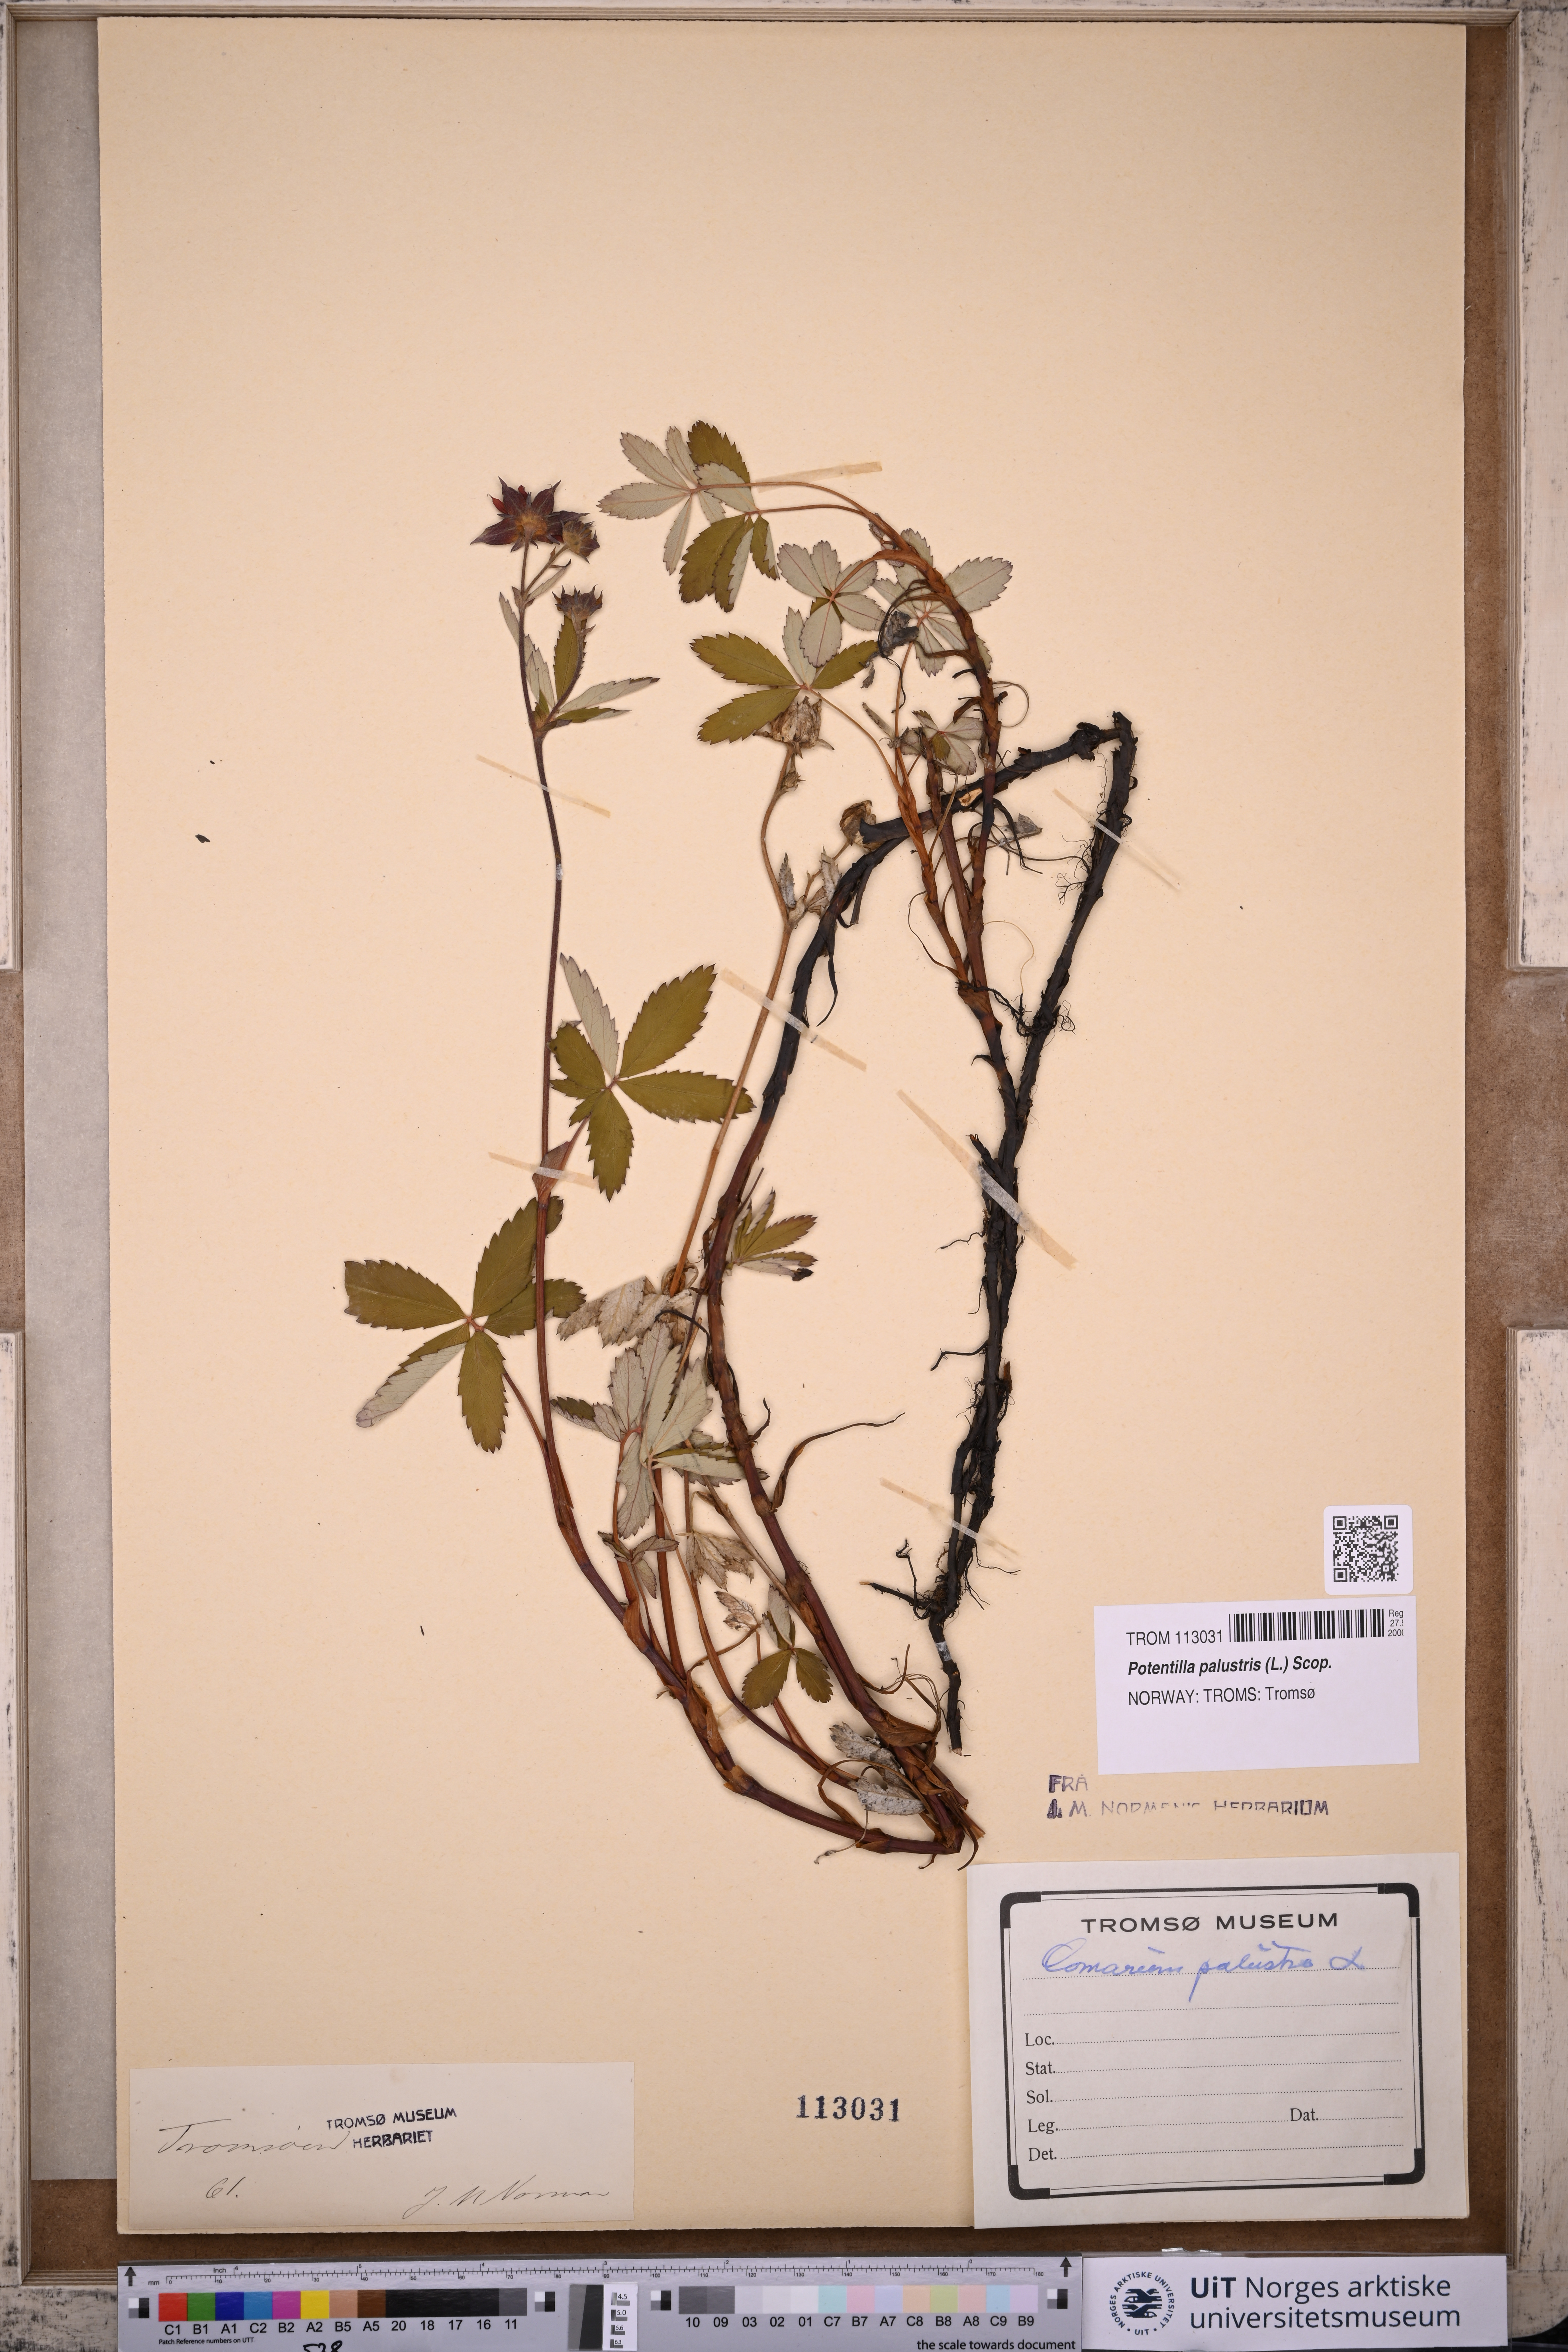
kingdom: Plantae
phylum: Tracheophyta
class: Magnoliopsida
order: Rosales
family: Rosaceae
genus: Comarum
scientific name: Comarum palustre
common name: Marsh cinquefoil
